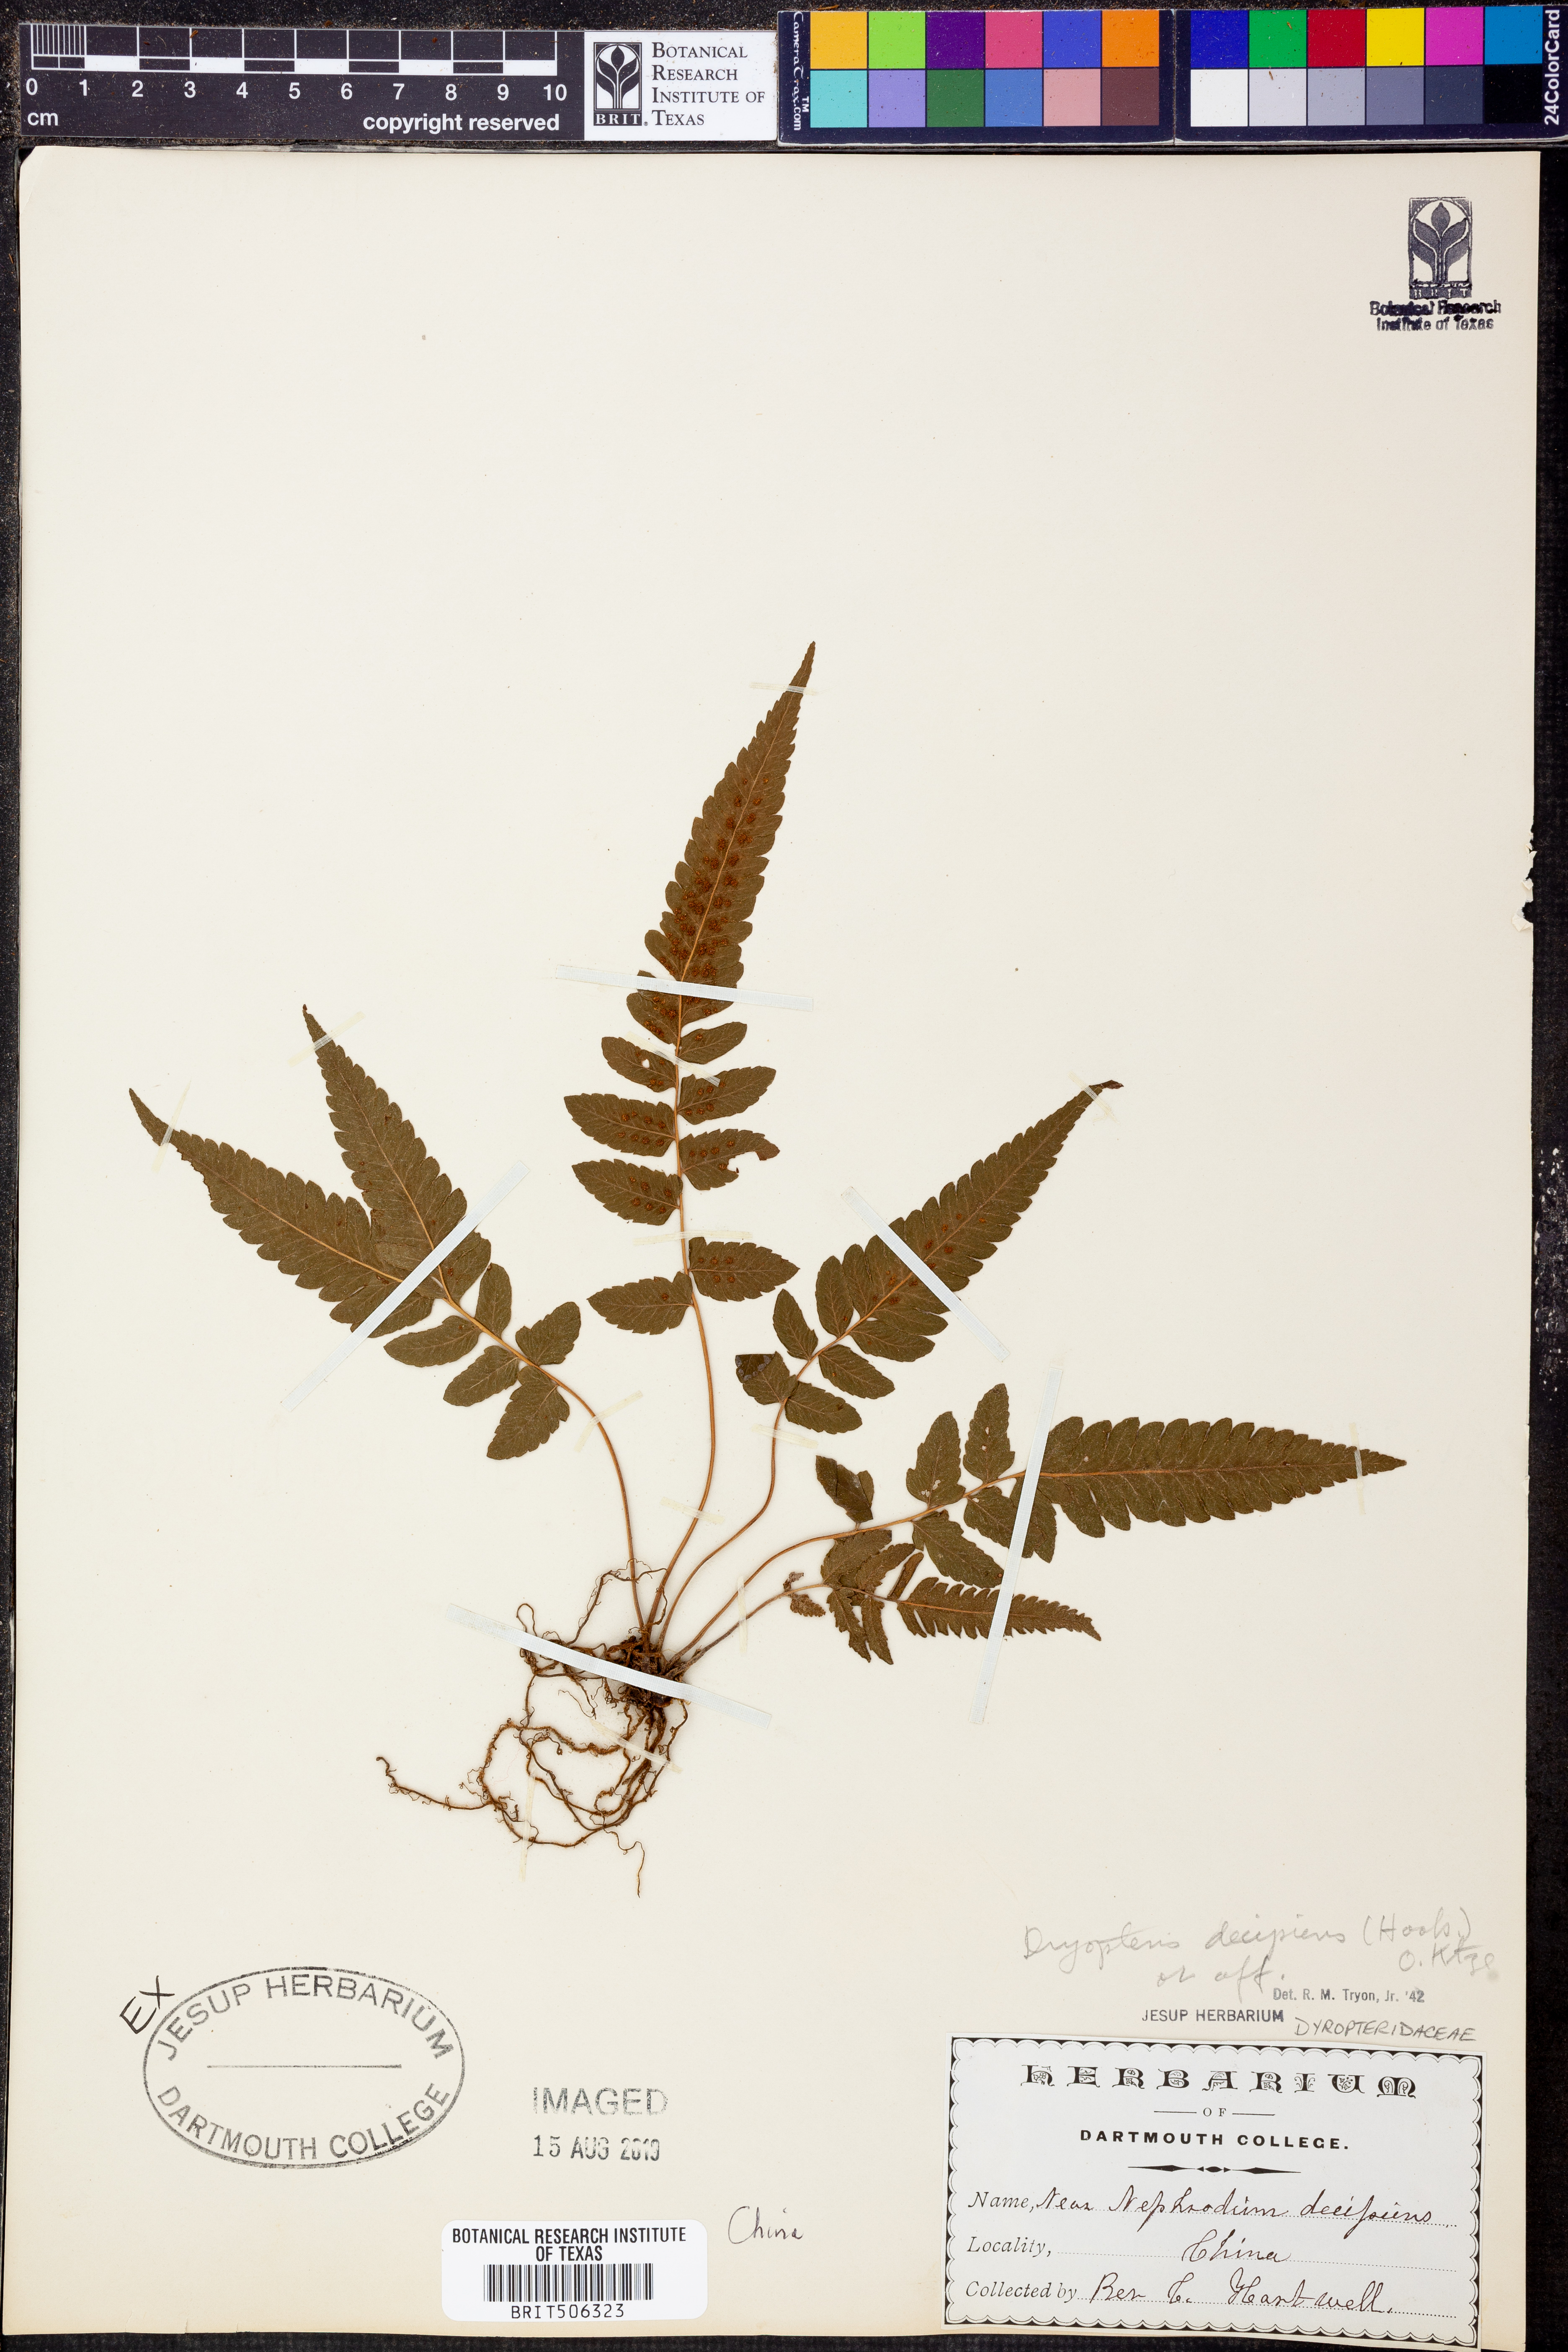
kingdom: Plantae
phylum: Tracheophyta
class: Polypodiopsida
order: Polypodiales
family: Dryopteridaceae
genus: Dryopteris
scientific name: Dryopteris decipiens
